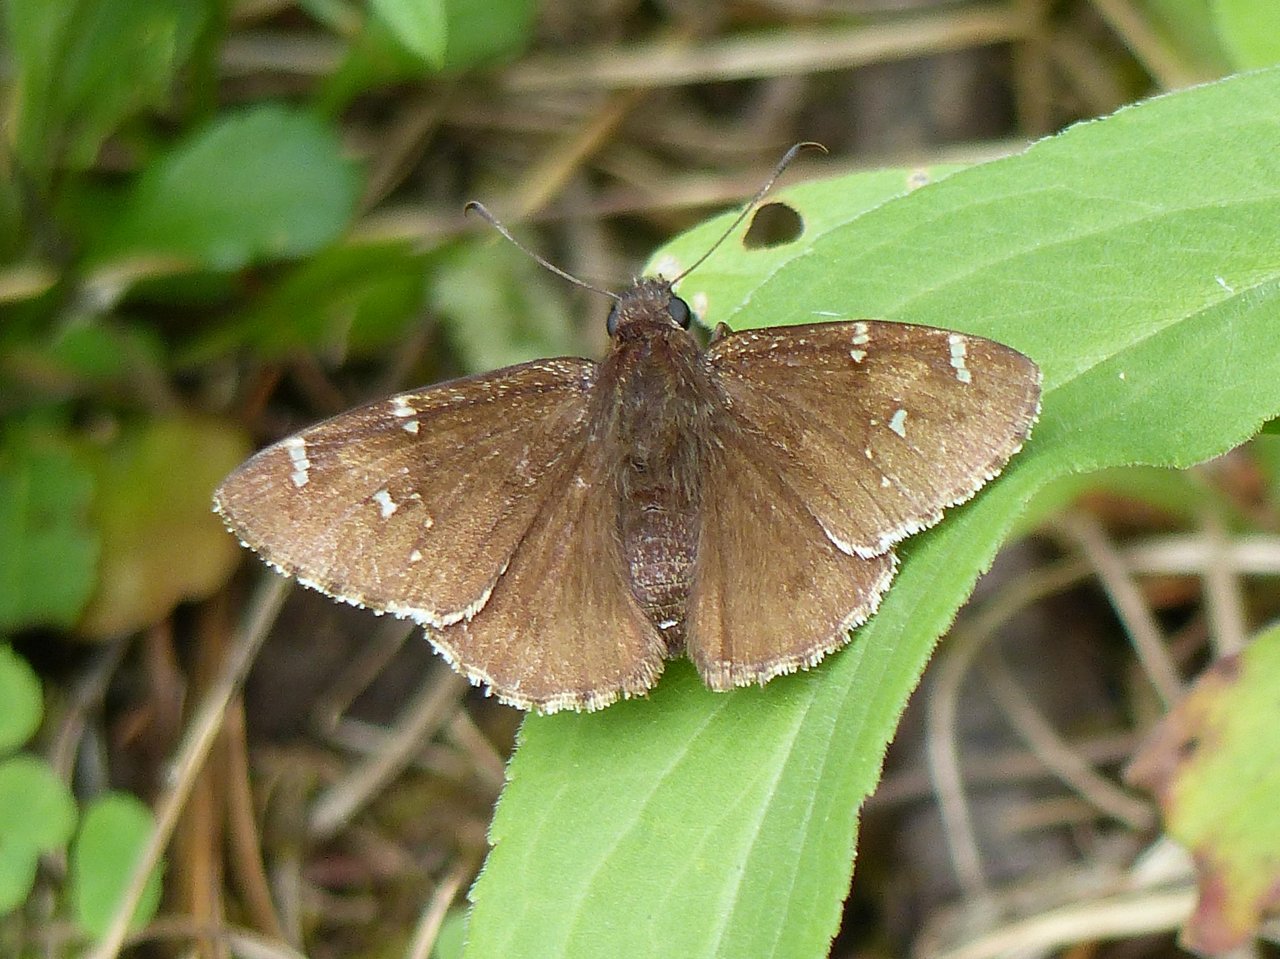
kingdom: Animalia
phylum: Arthropoda
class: Insecta
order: Lepidoptera
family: Hesperiidae
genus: Autochton
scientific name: Autochton
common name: Northern Cloudywing
